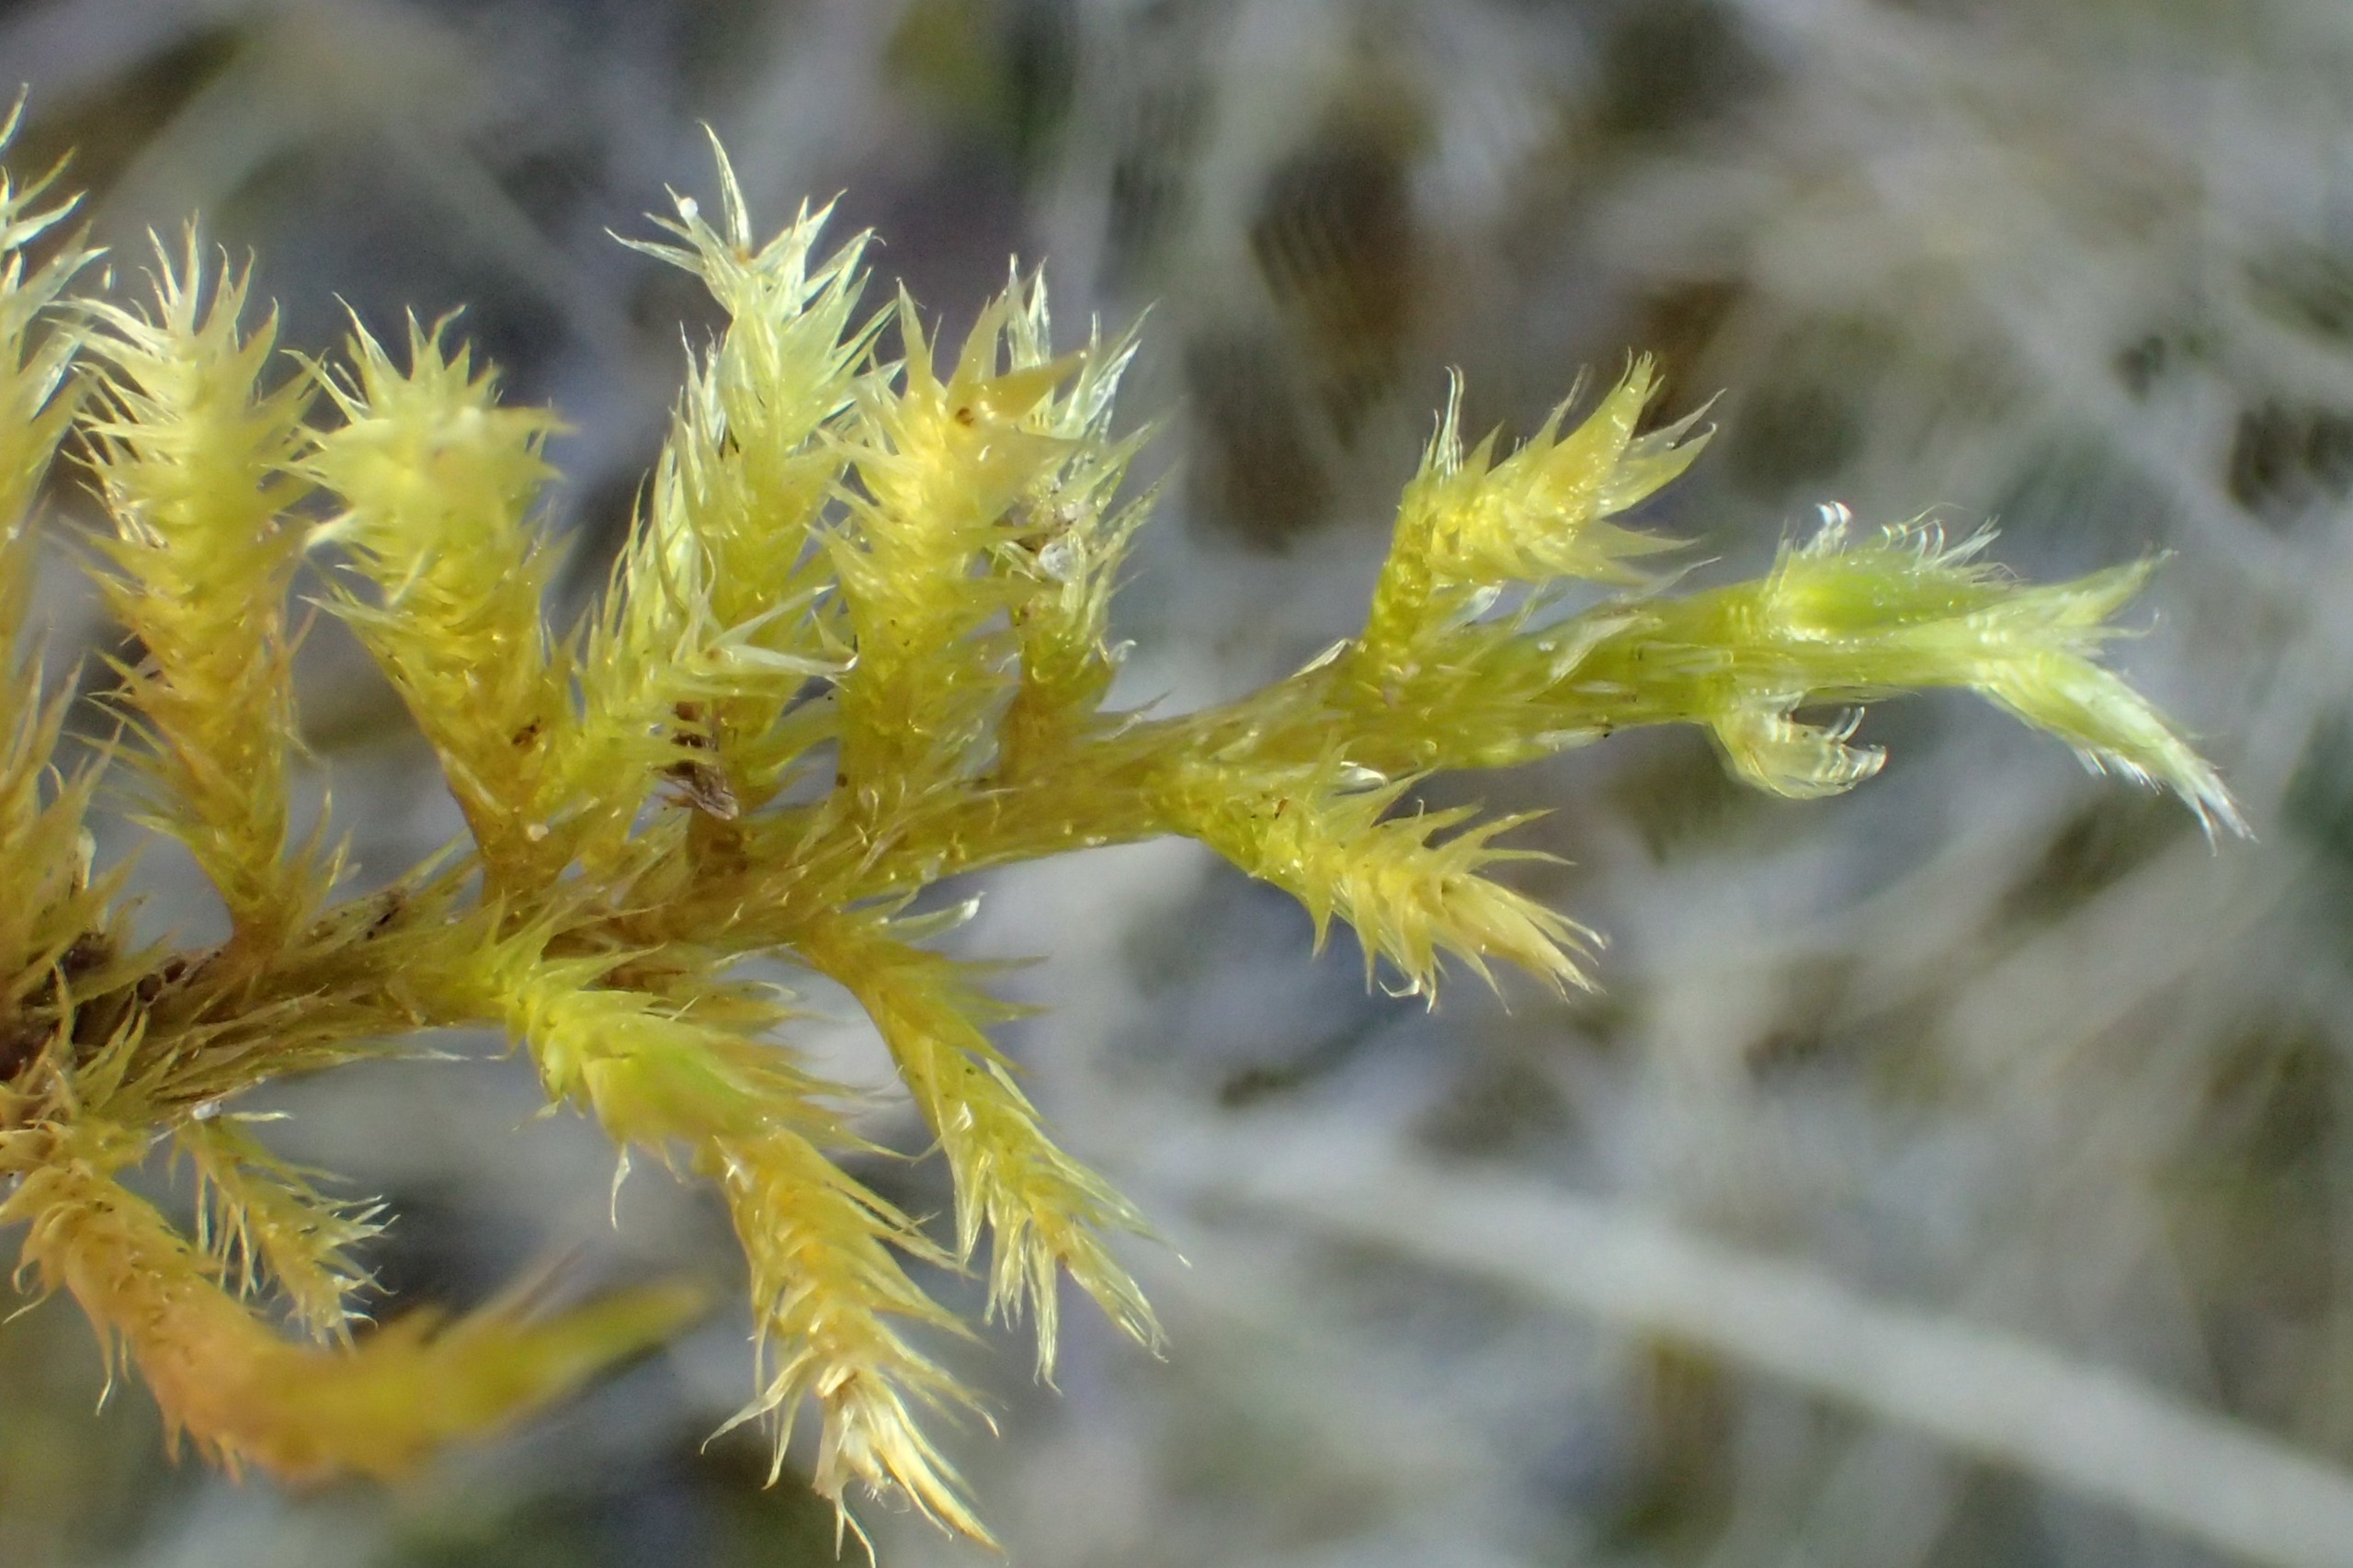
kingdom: Plantae
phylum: Bryophyta
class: Bryopsida
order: Hypnales
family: Brachytheciaceae
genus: Homalothecium
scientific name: Homalothecium lutescens
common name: Gul krumkapsel
